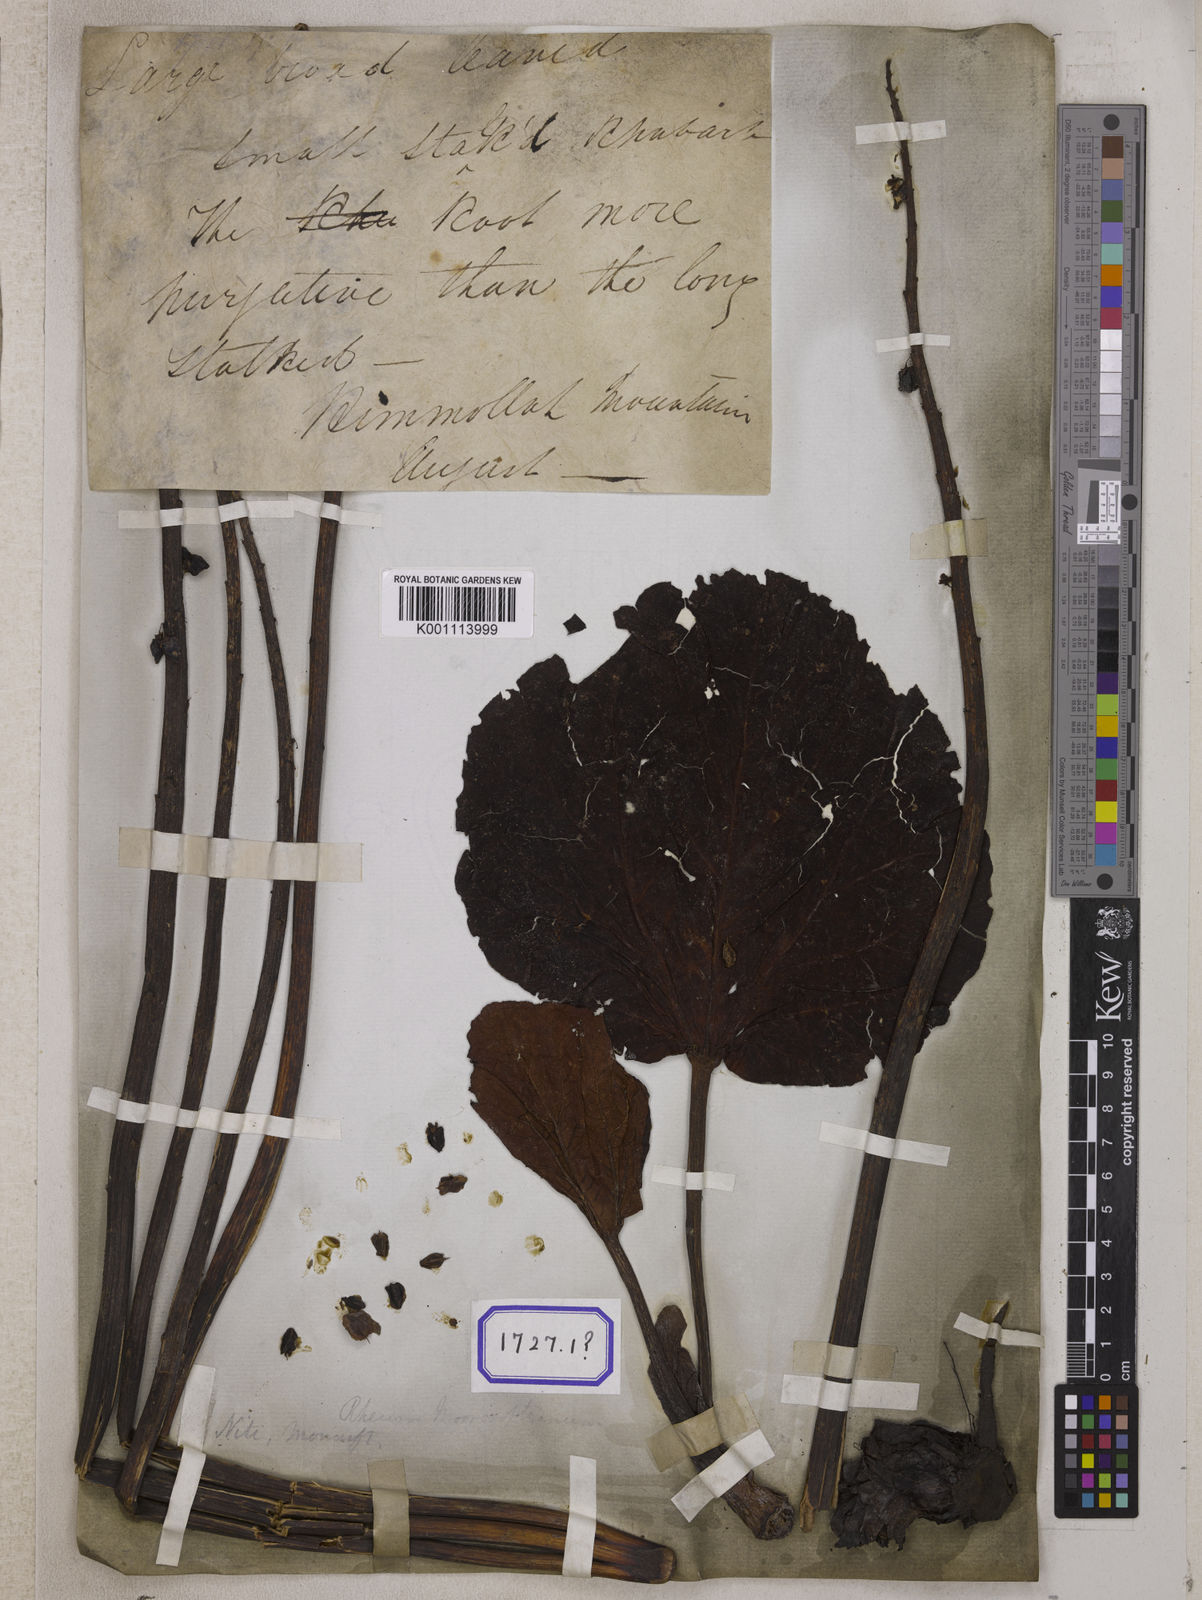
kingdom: Plantae
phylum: Tracheophyta
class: Magnoliopsida
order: Caryophyllales
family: Polygonaceae
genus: Rheum
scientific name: Rheum
